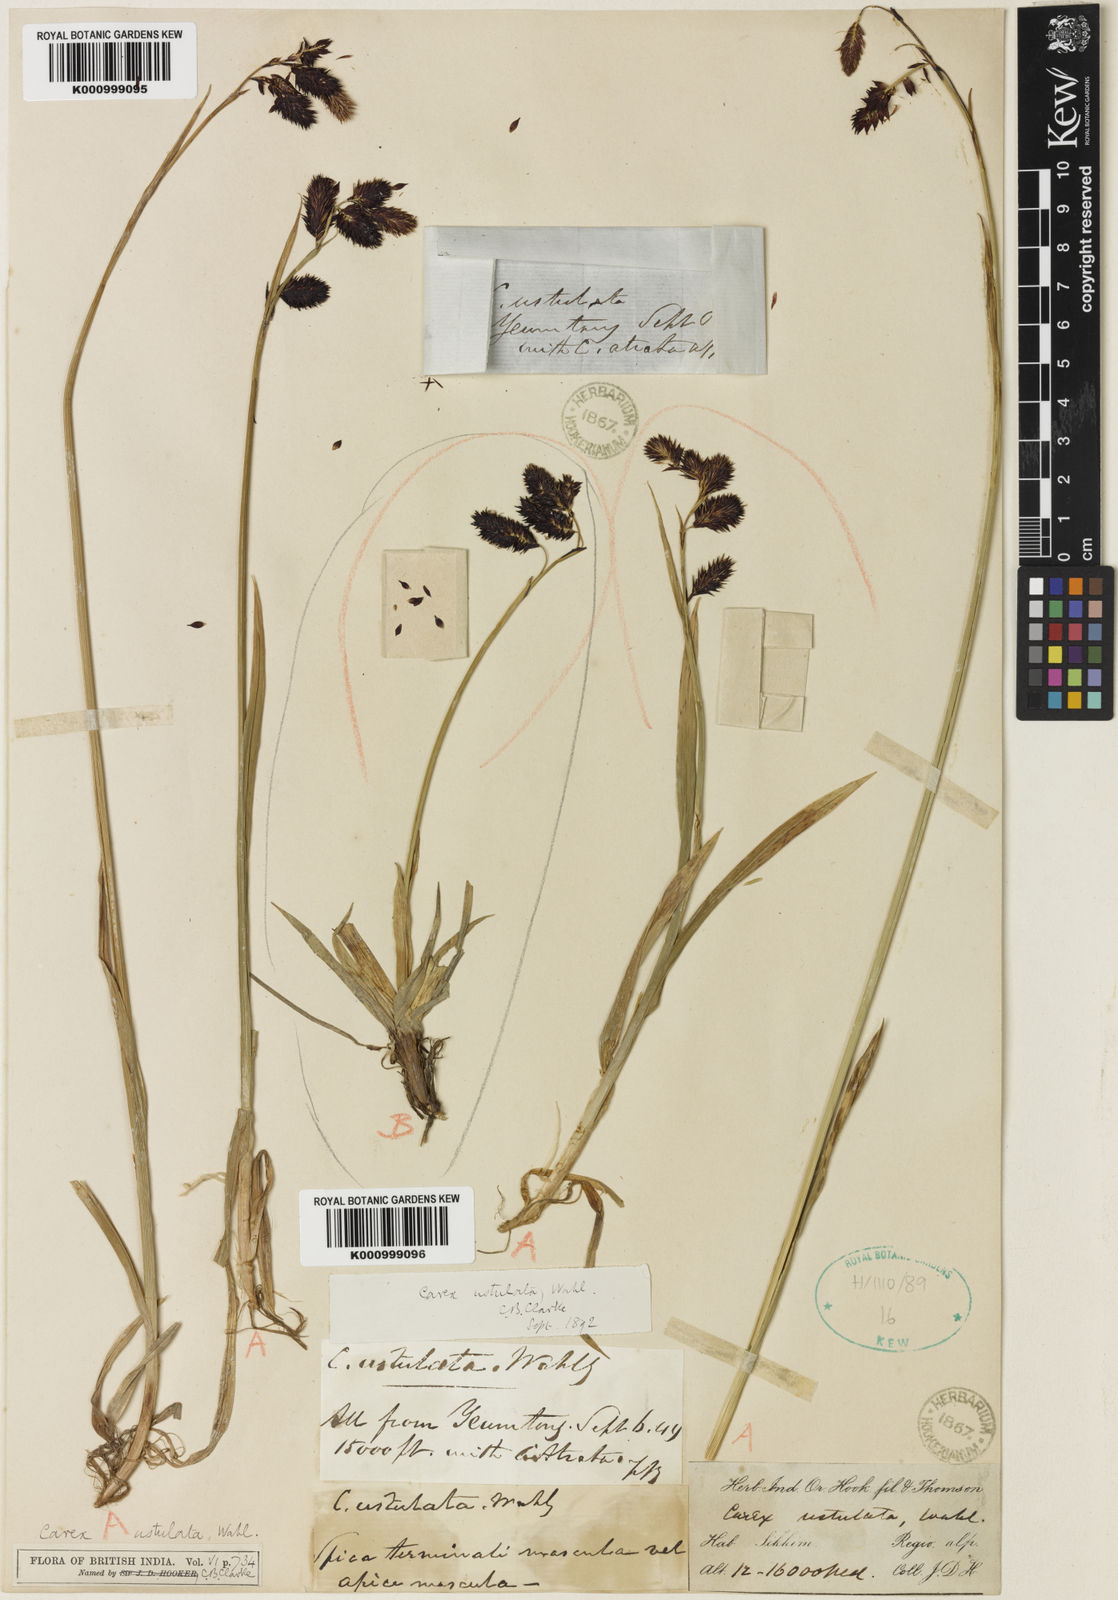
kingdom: Plantae
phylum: Tracheophyta
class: Liliopsida
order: Poales
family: Cyperaceae
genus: Carex
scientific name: Carex atrofusca
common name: Scorched alpine-sedge
